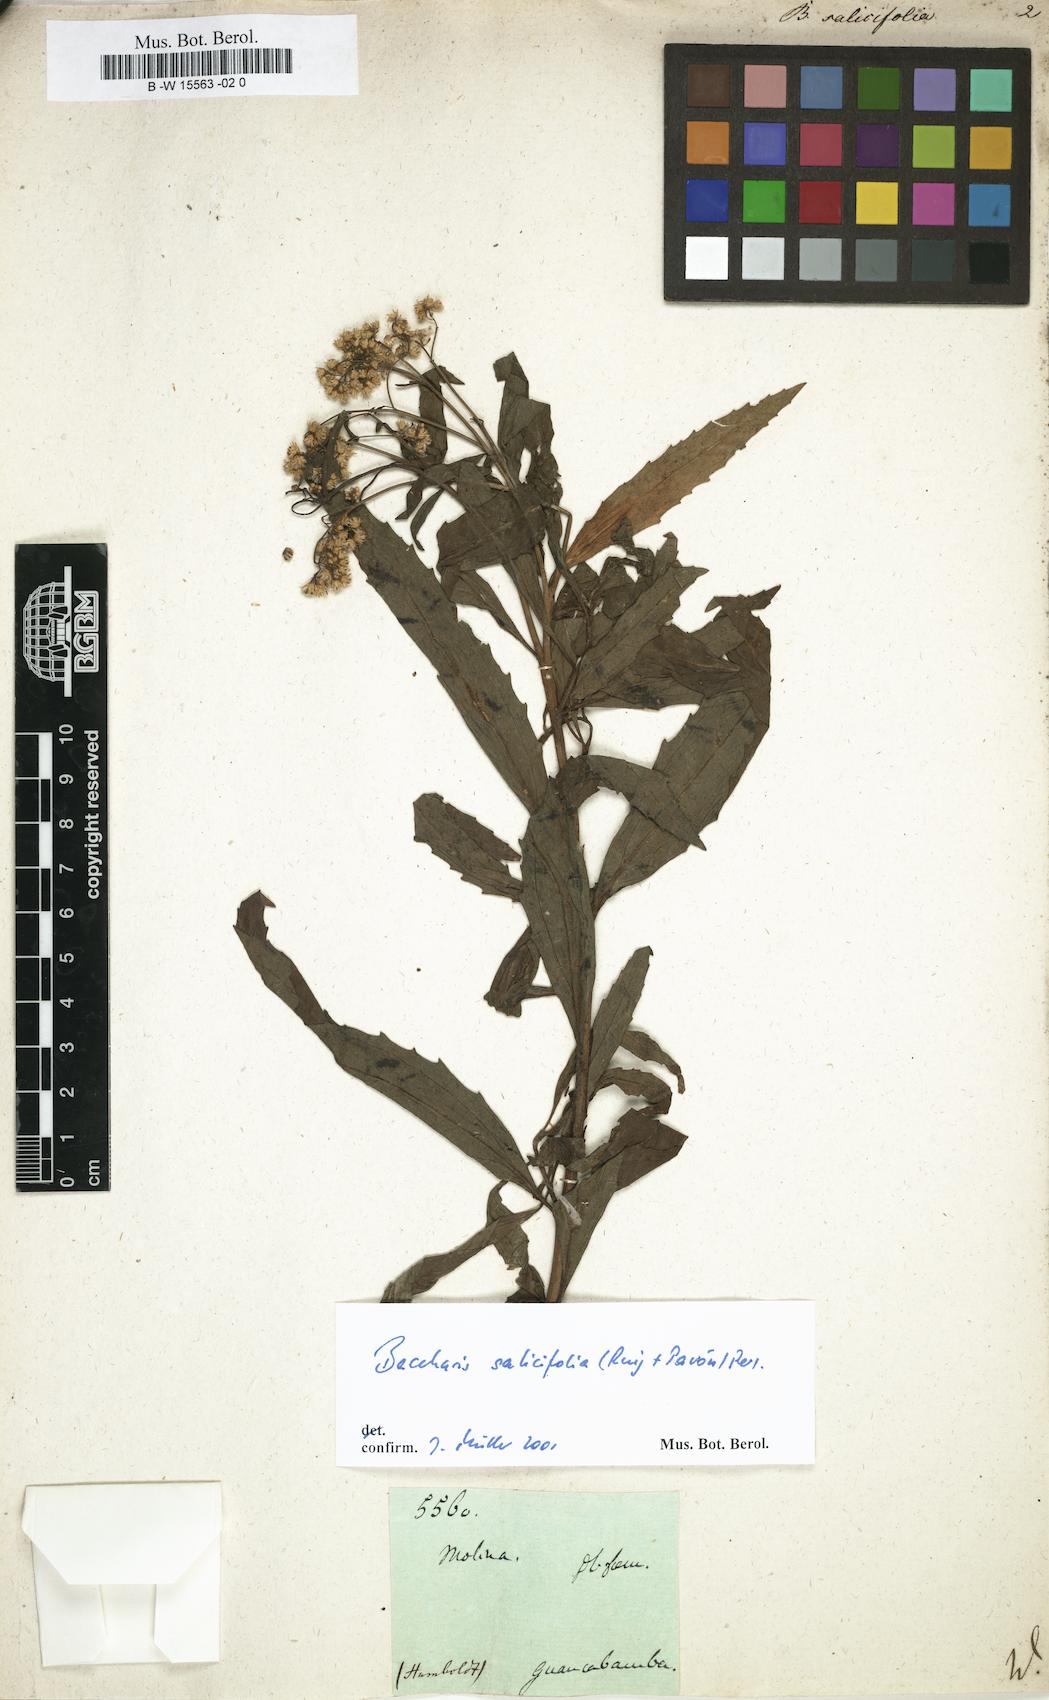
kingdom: Plantae
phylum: Tracheophyta
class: Magnoliopsida
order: Asterales
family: Asteraceae
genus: Baccharis
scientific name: Baccharis salicifolia
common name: Sticky baccharis
